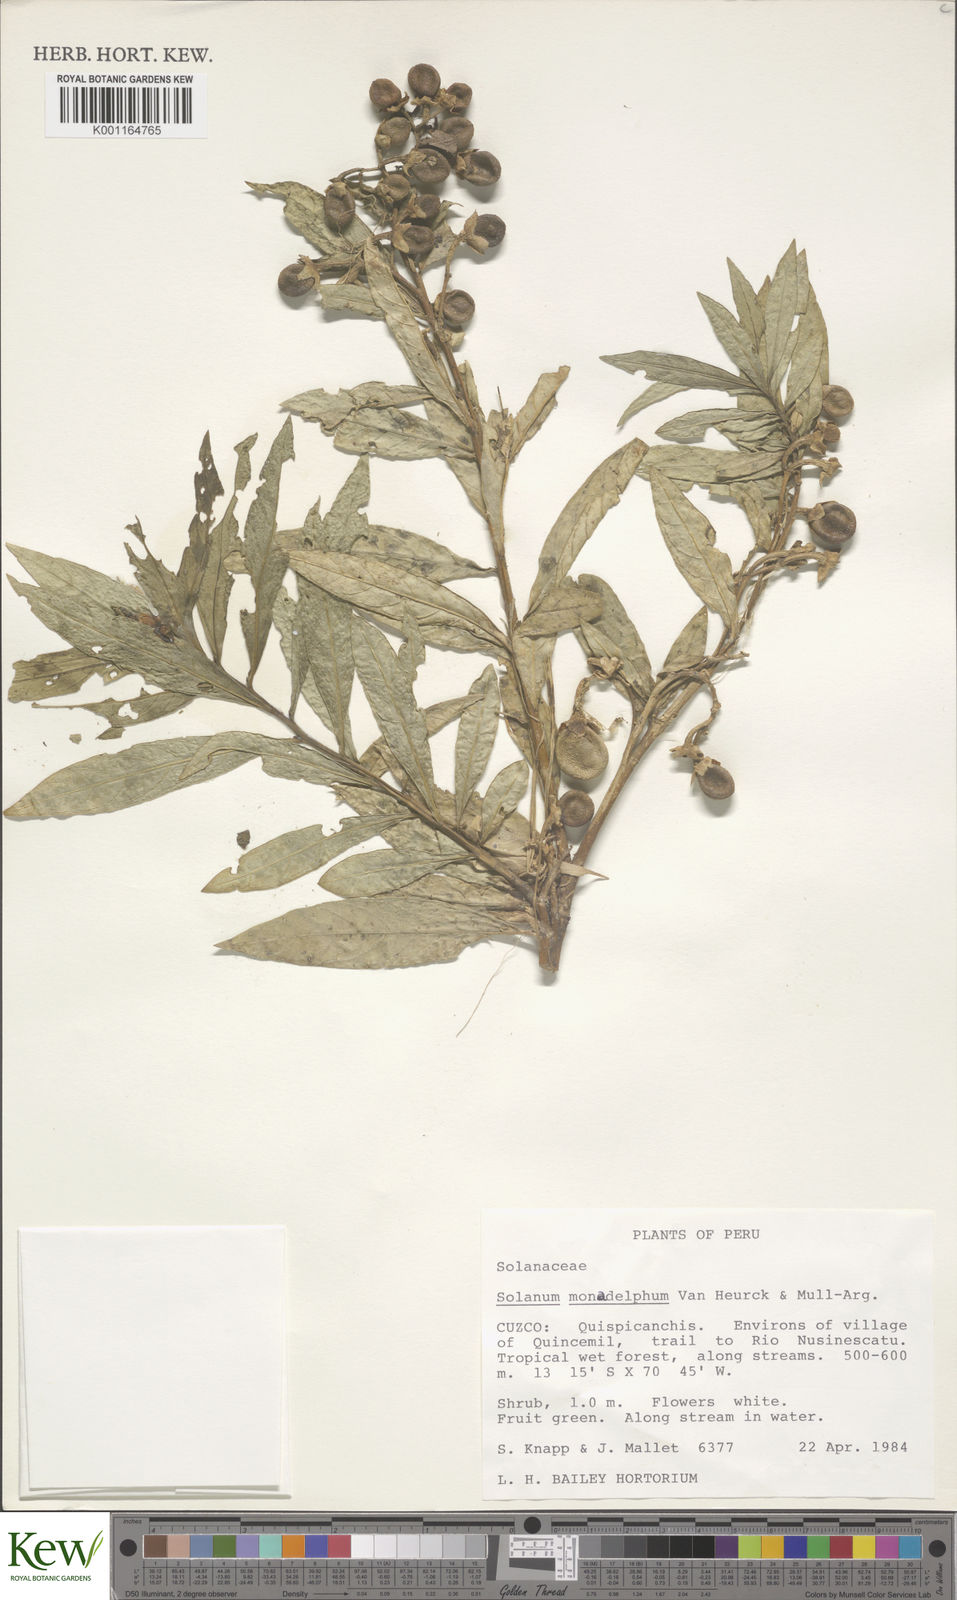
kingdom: Plantae
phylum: Tracheophyta
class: Magnoliopsida
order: Solanales
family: Solanaceae
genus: Solanum
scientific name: Solanum monadelphum
